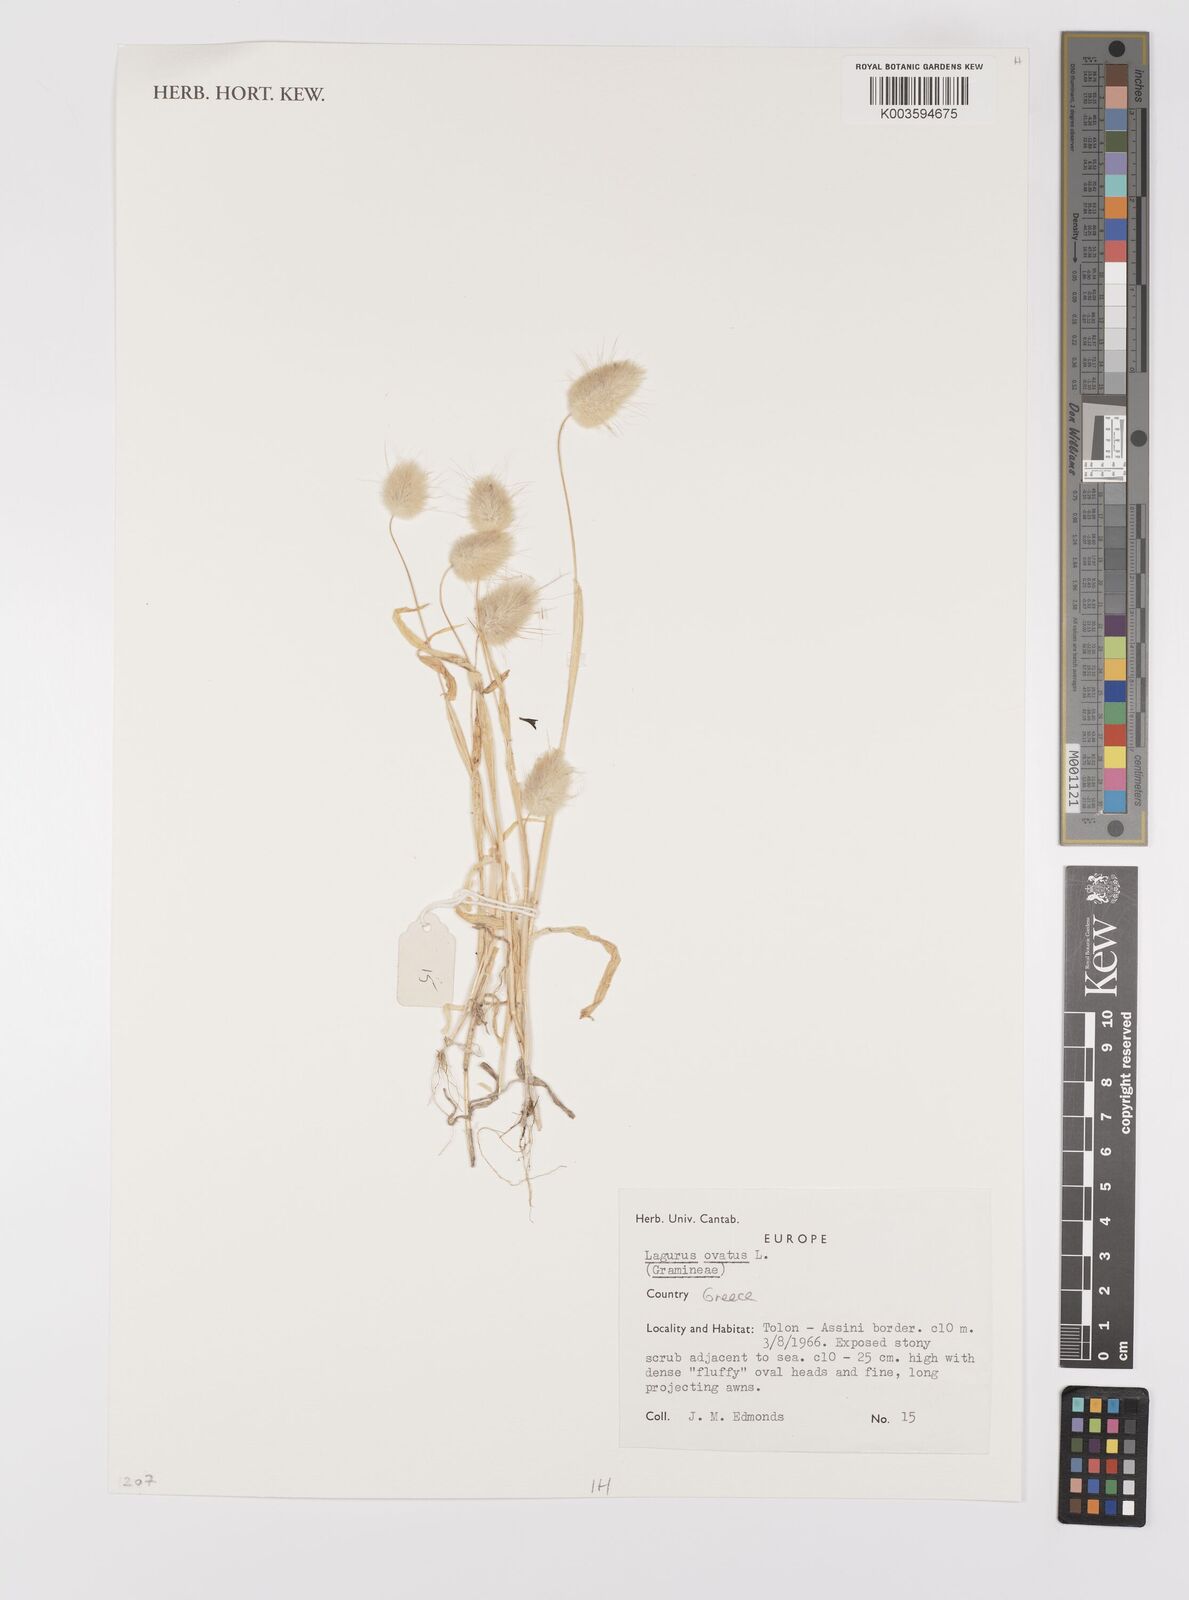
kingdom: Plantae
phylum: Tracheophyta
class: Liliopsida
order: Poales
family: Poaceae
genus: Lagurus
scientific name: Lagurus ovatus
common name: Hare's-tail
